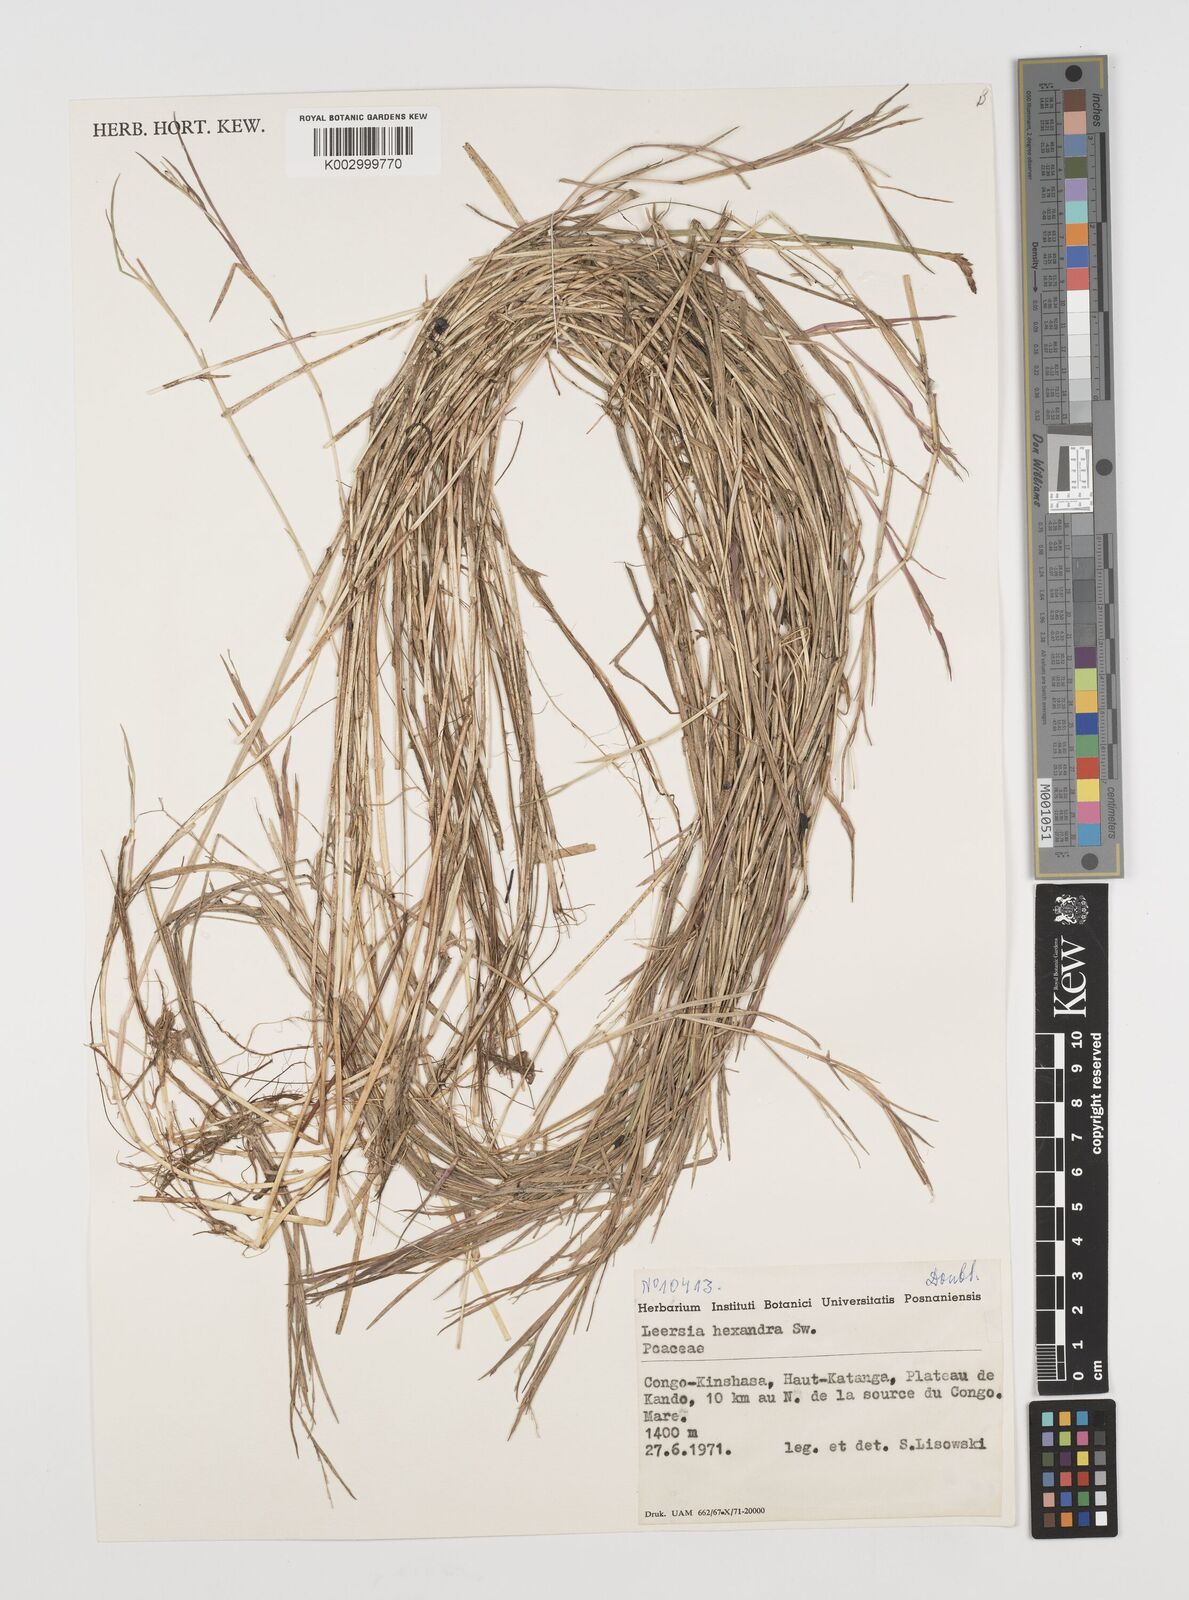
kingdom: Plantae
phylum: Tracheophyta
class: Liliopsida
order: Poales
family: Poaceae
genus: Leersia
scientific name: Leersia hexandra
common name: Southern cut grass
